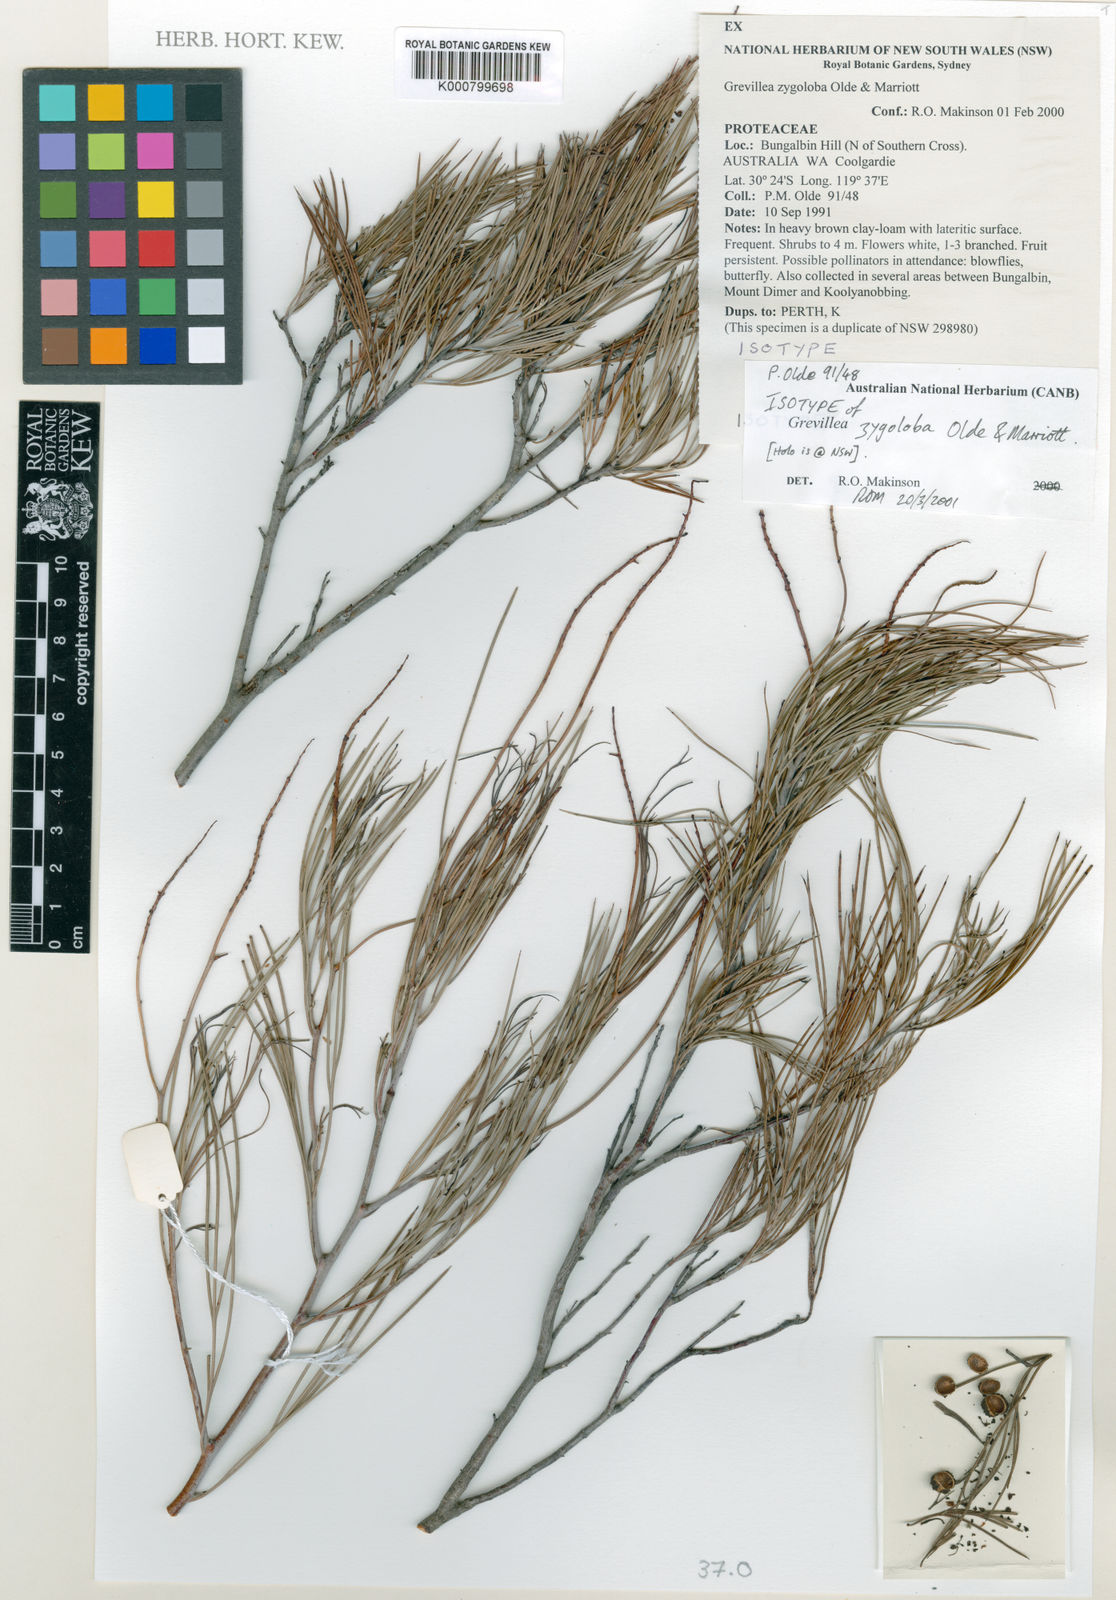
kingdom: Plantae
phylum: Tracheophyta
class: Magnoliopsida
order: Proteales
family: Proteaceae
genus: Grevillea
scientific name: Grevillea zygoloba
